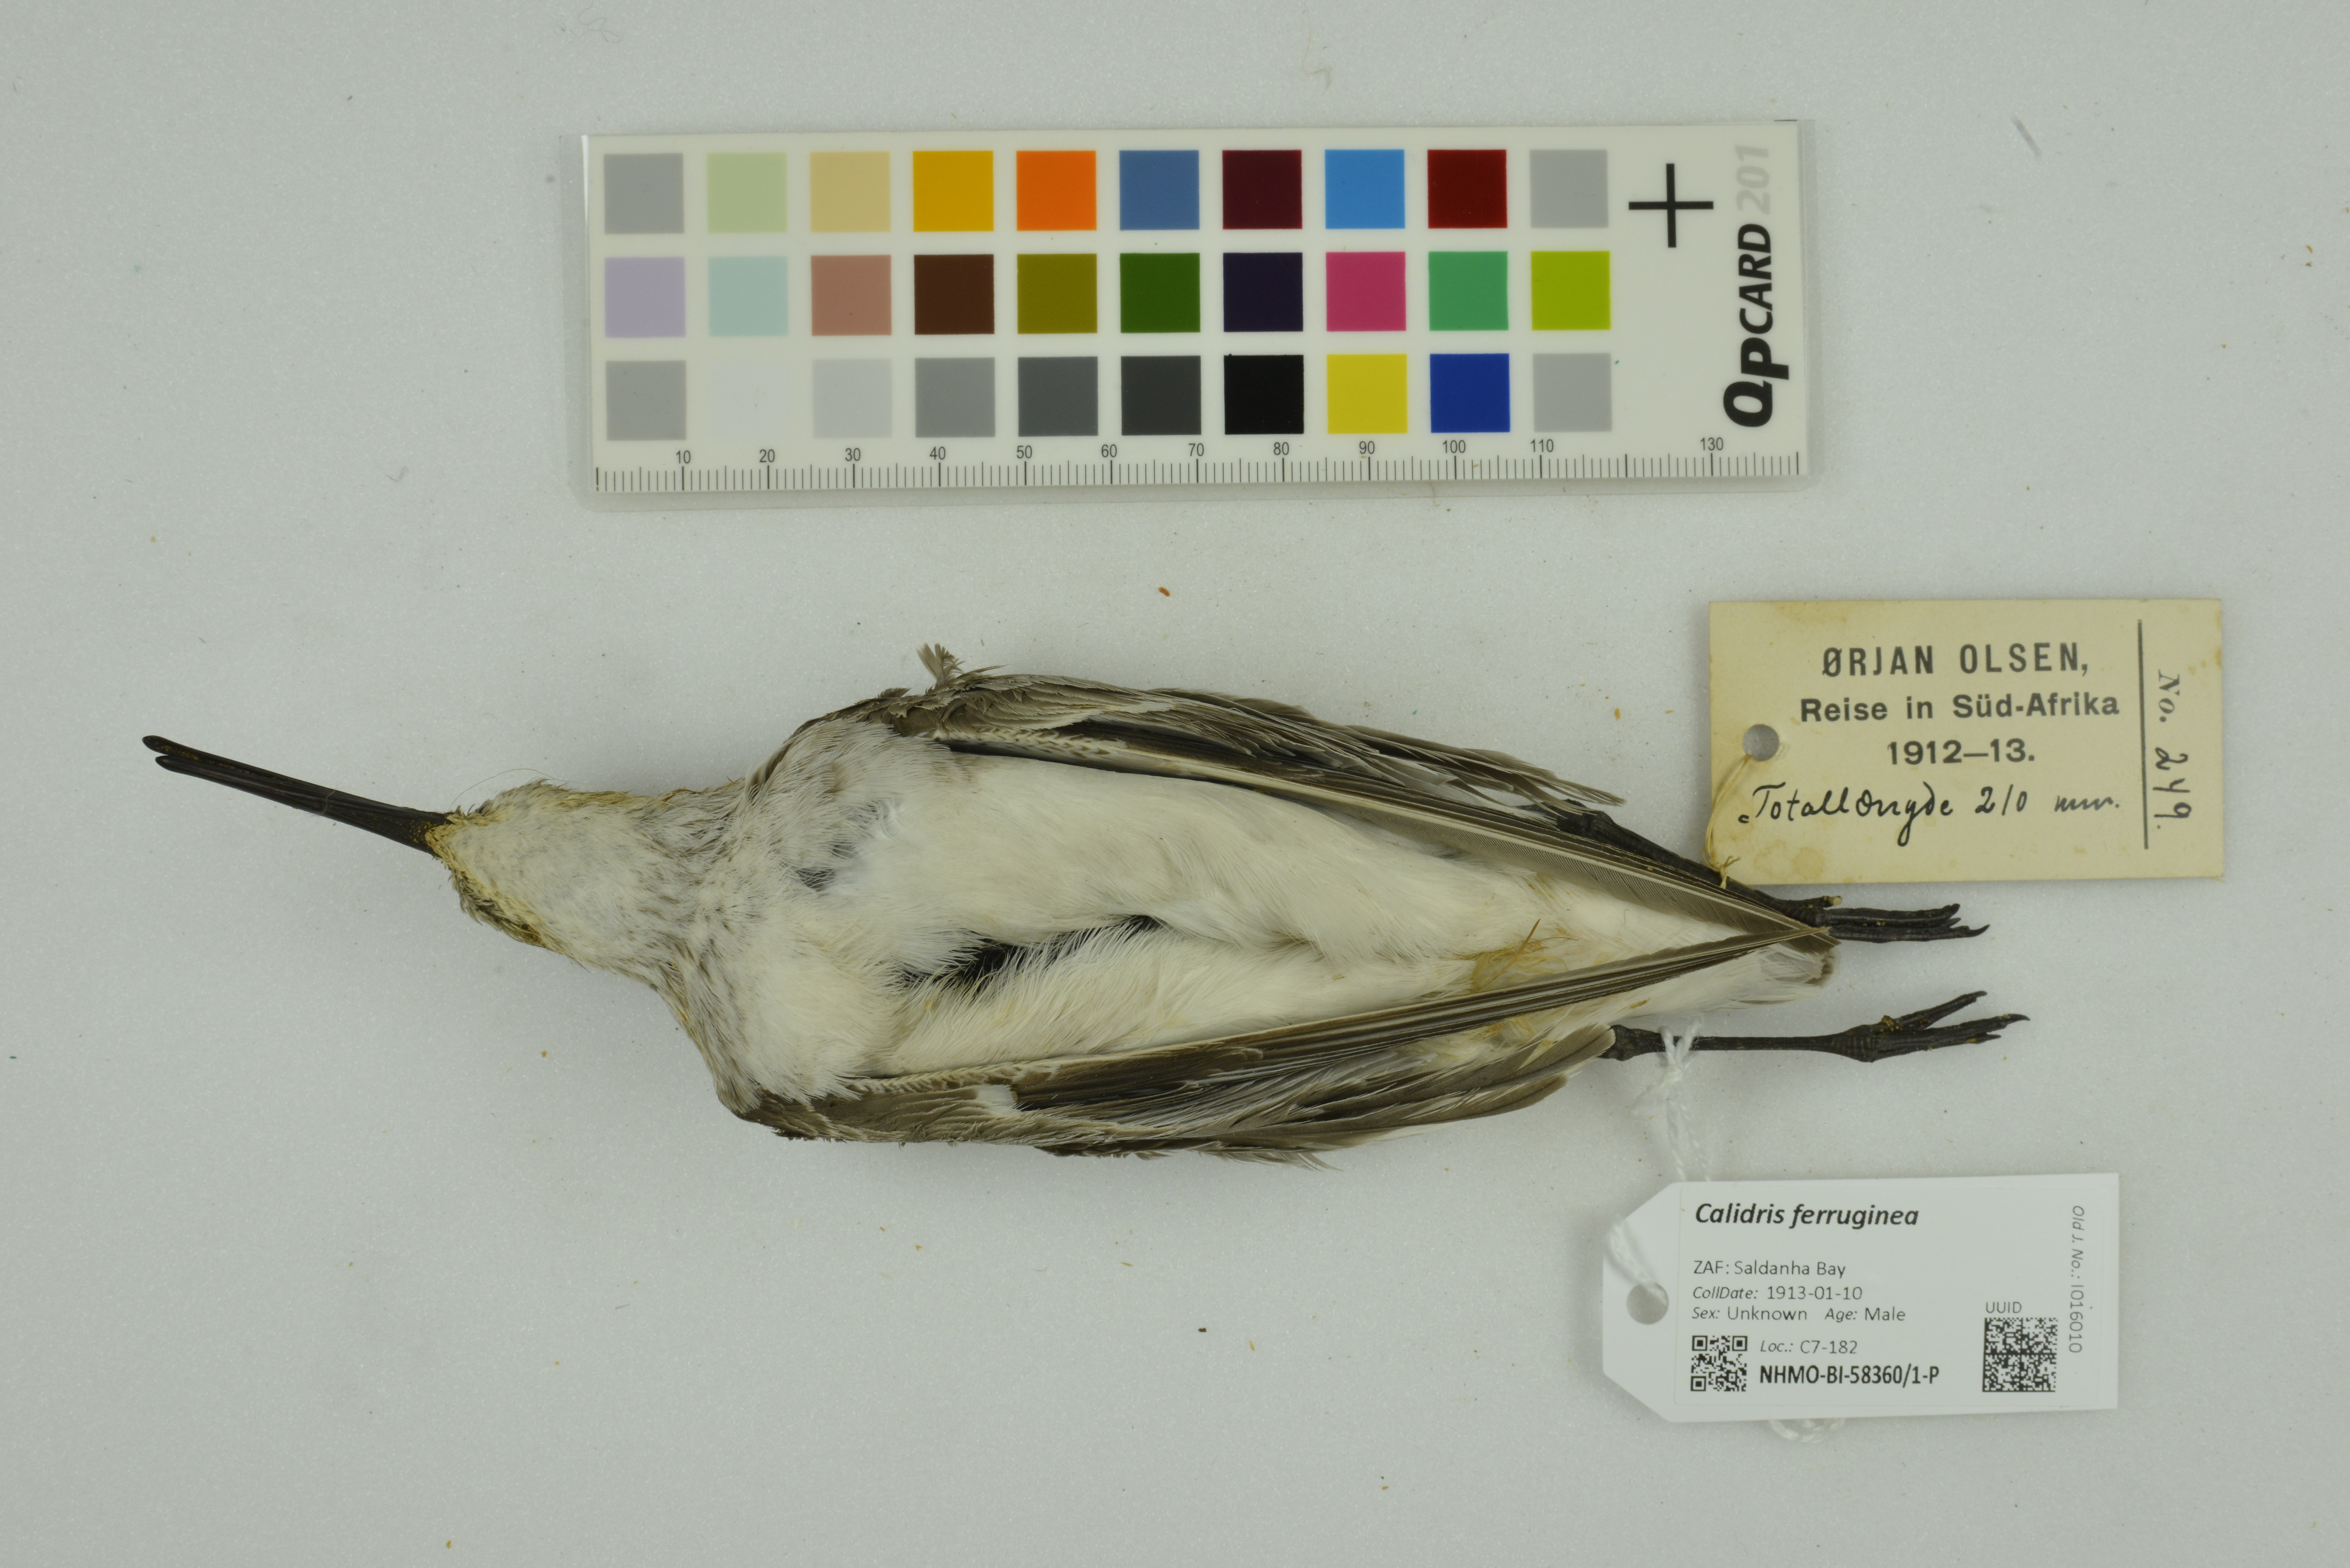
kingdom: Animalia
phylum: Chordata
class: Aves
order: Charadriiformes
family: Scolopacidae
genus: Calidris
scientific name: Calidris ferruginea
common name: Curlew sandpiper
